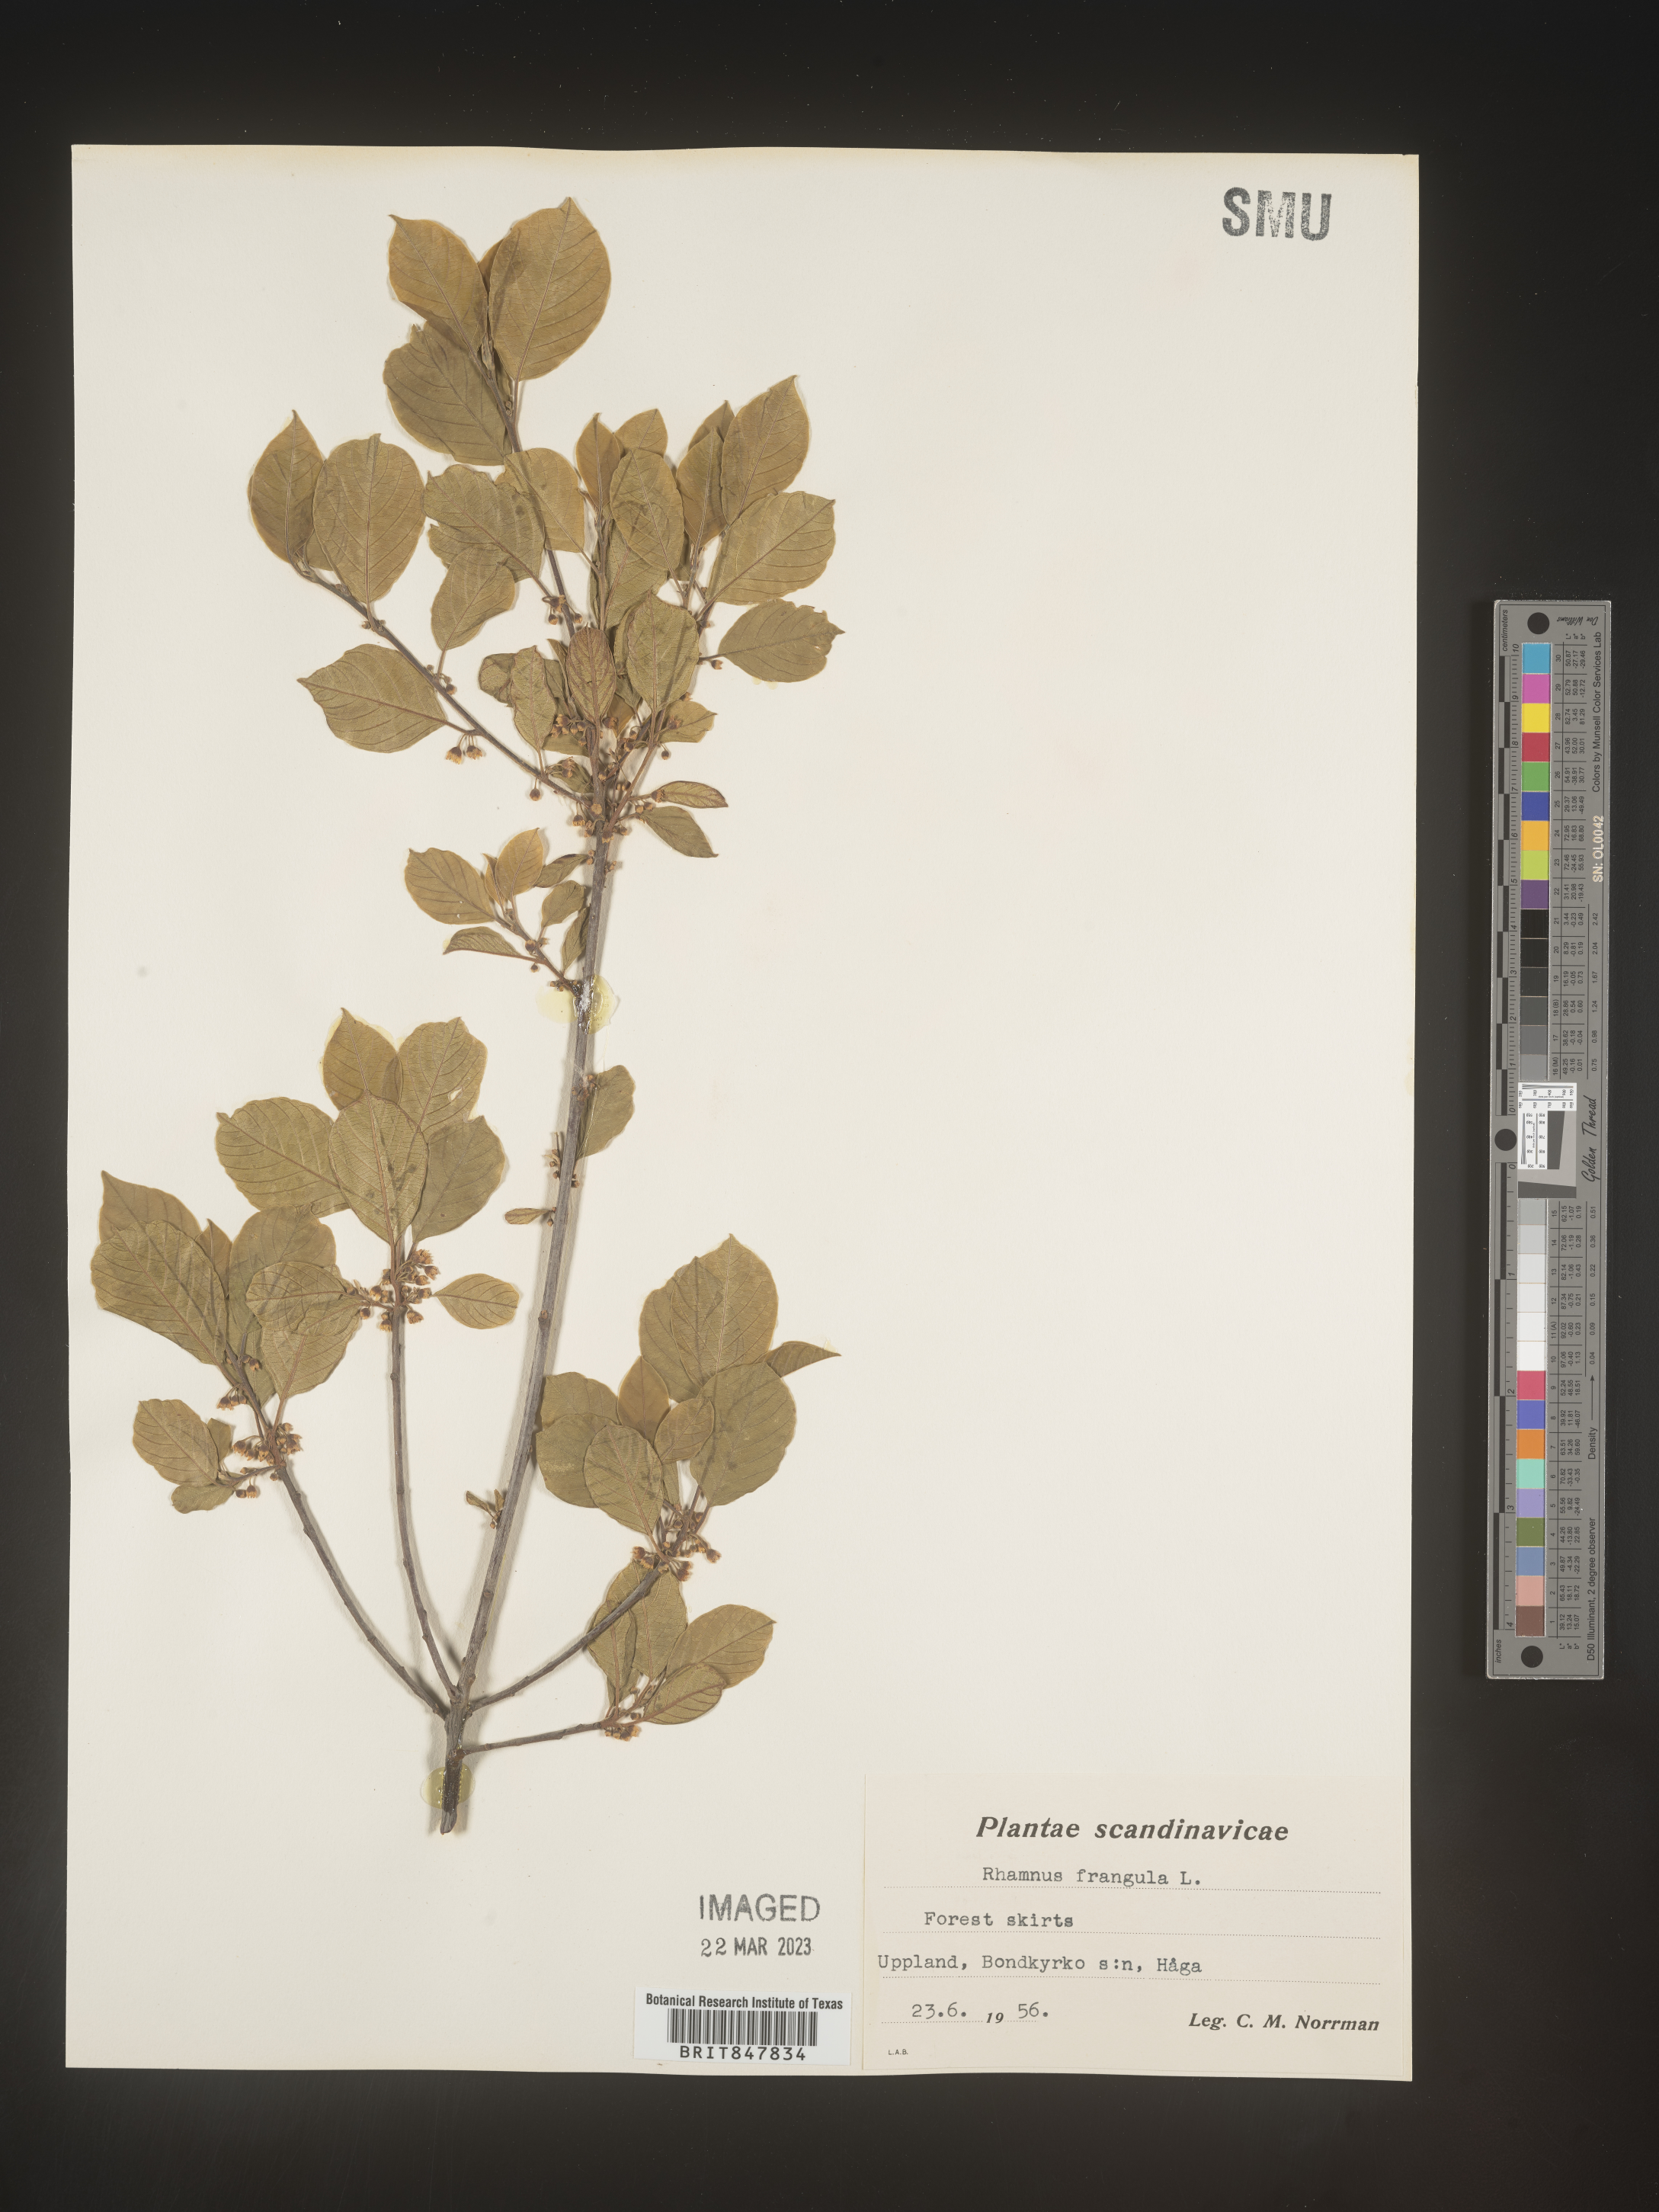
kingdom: Plantae
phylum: Tracheophyta
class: Magnoliopsida
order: Rosales
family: Rhamnaceae
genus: Rhamnus
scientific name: Rhamnus
